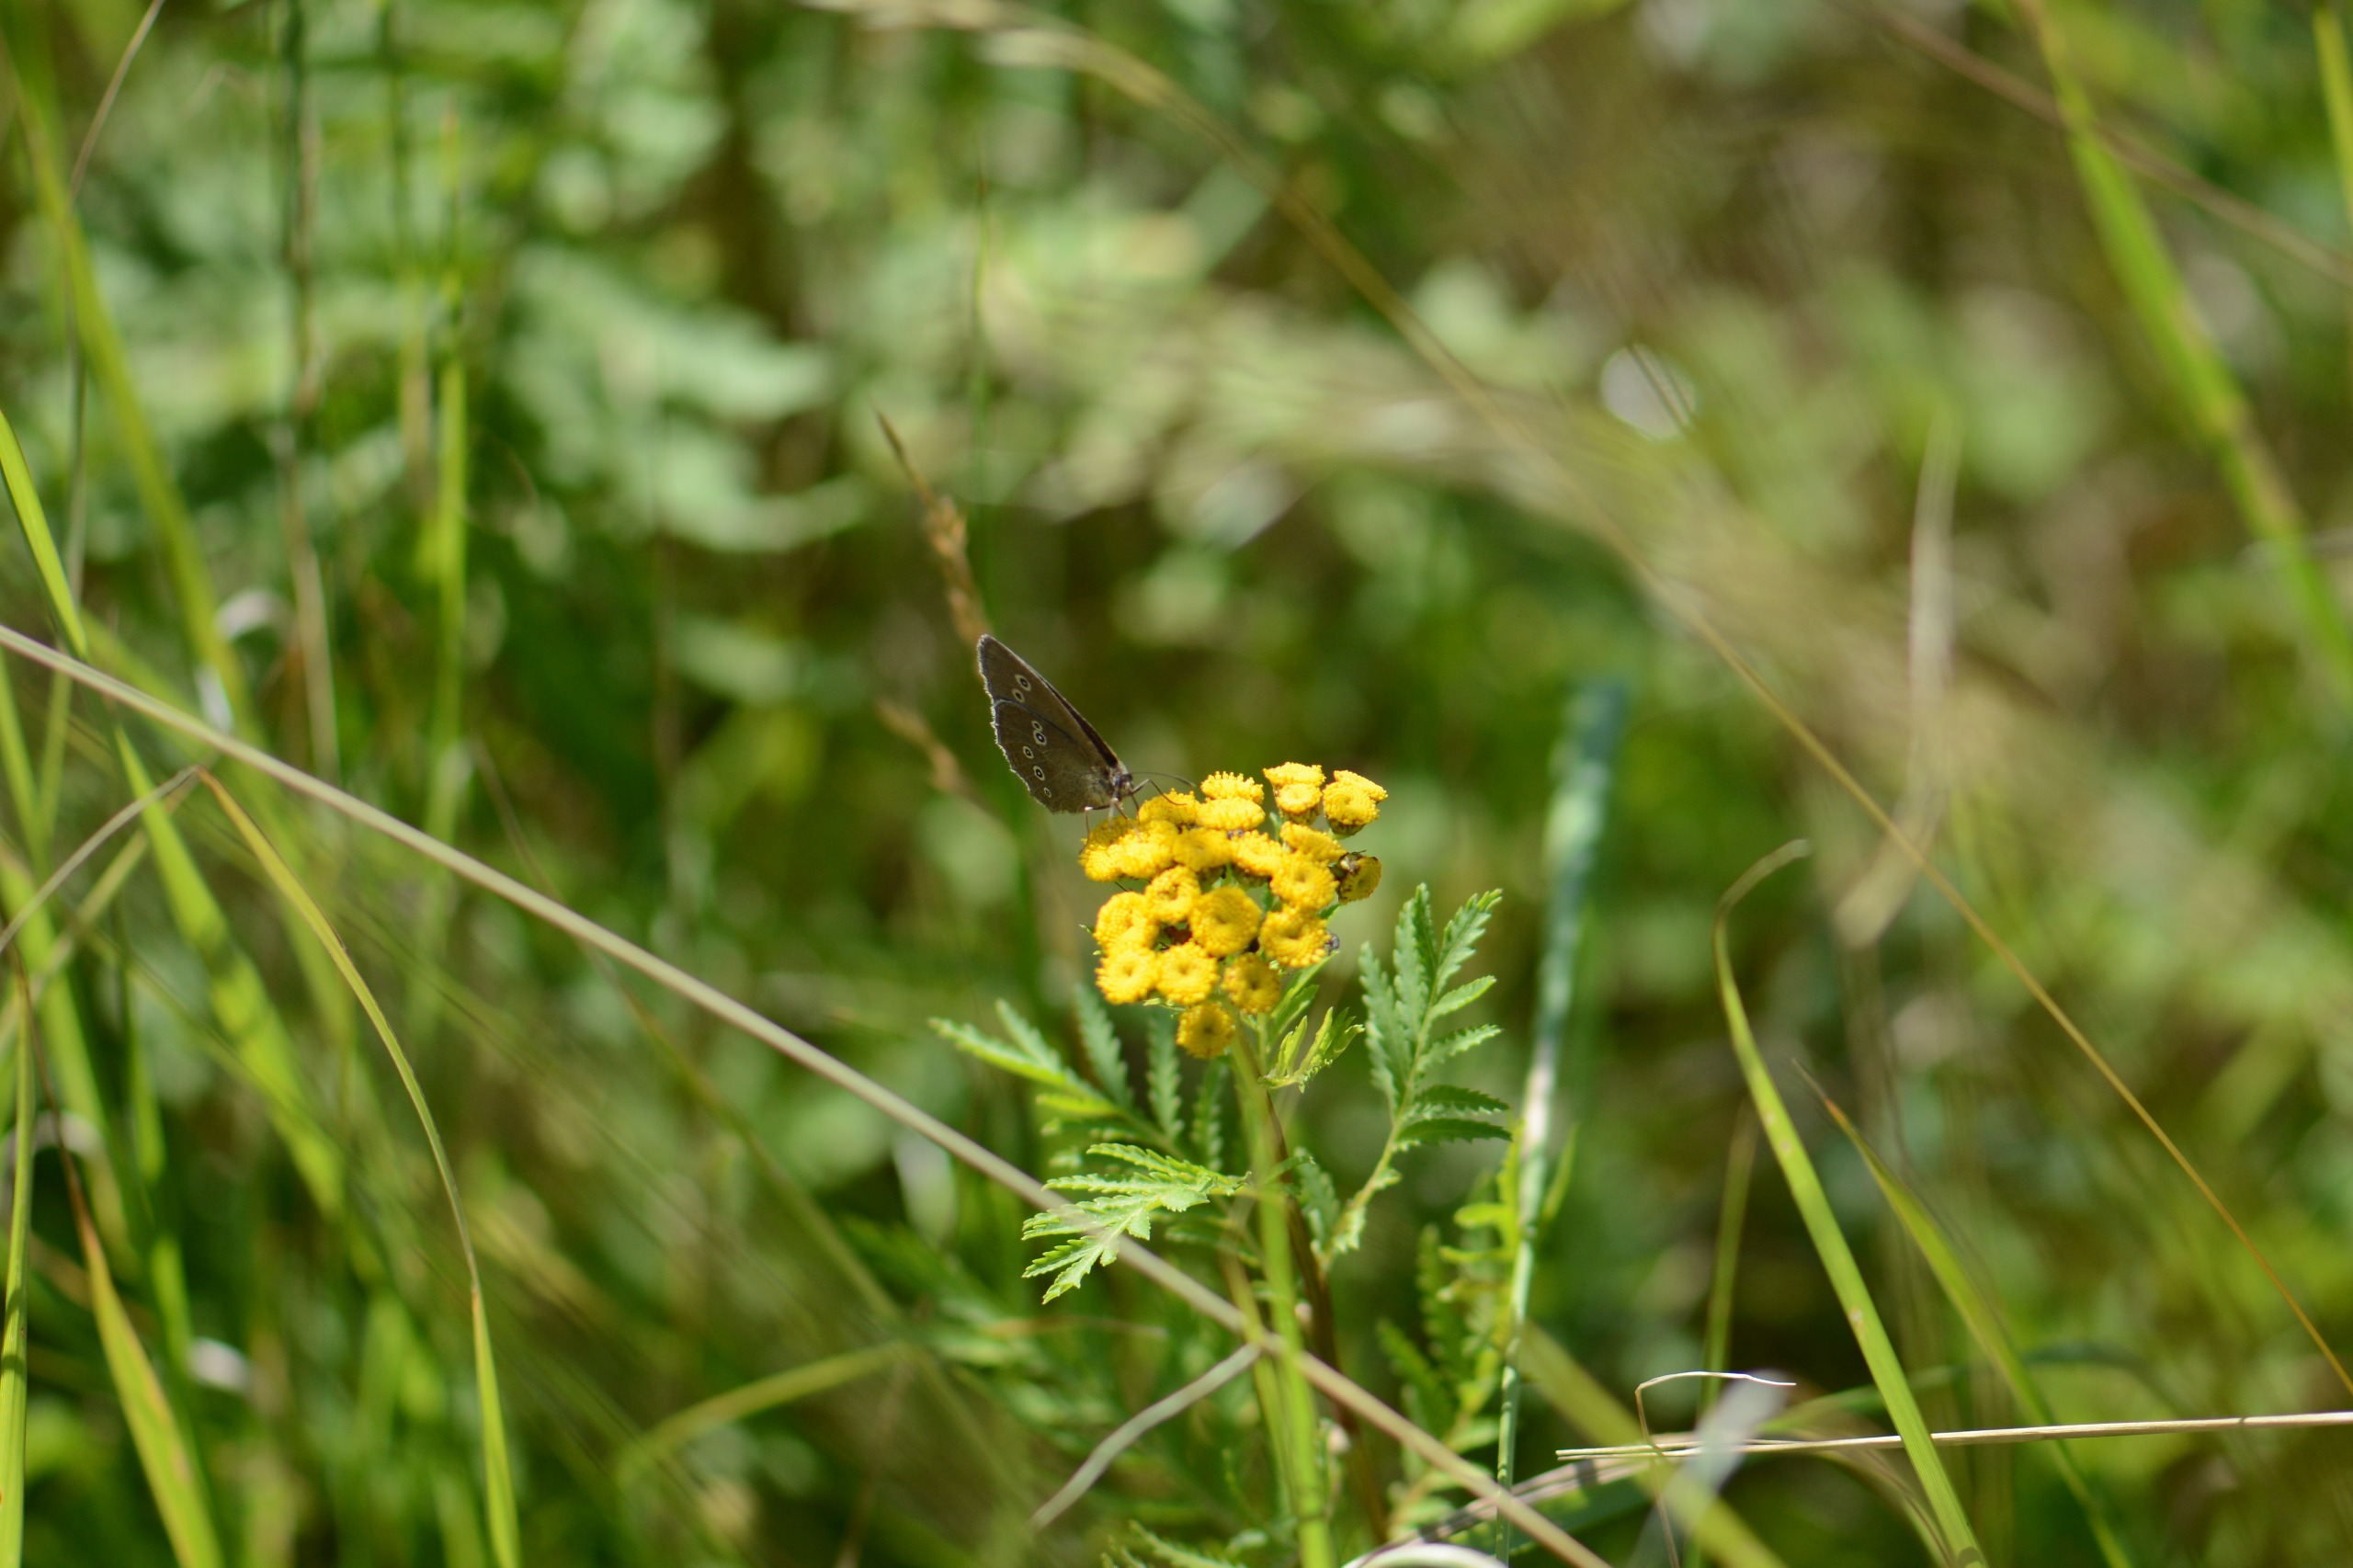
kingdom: Animalia
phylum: Arthropoda
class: Insecta
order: Lepidoptera
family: Nymphalidae
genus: Aphantopus
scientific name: Aphantopus hyperantus
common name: Engrandøje
